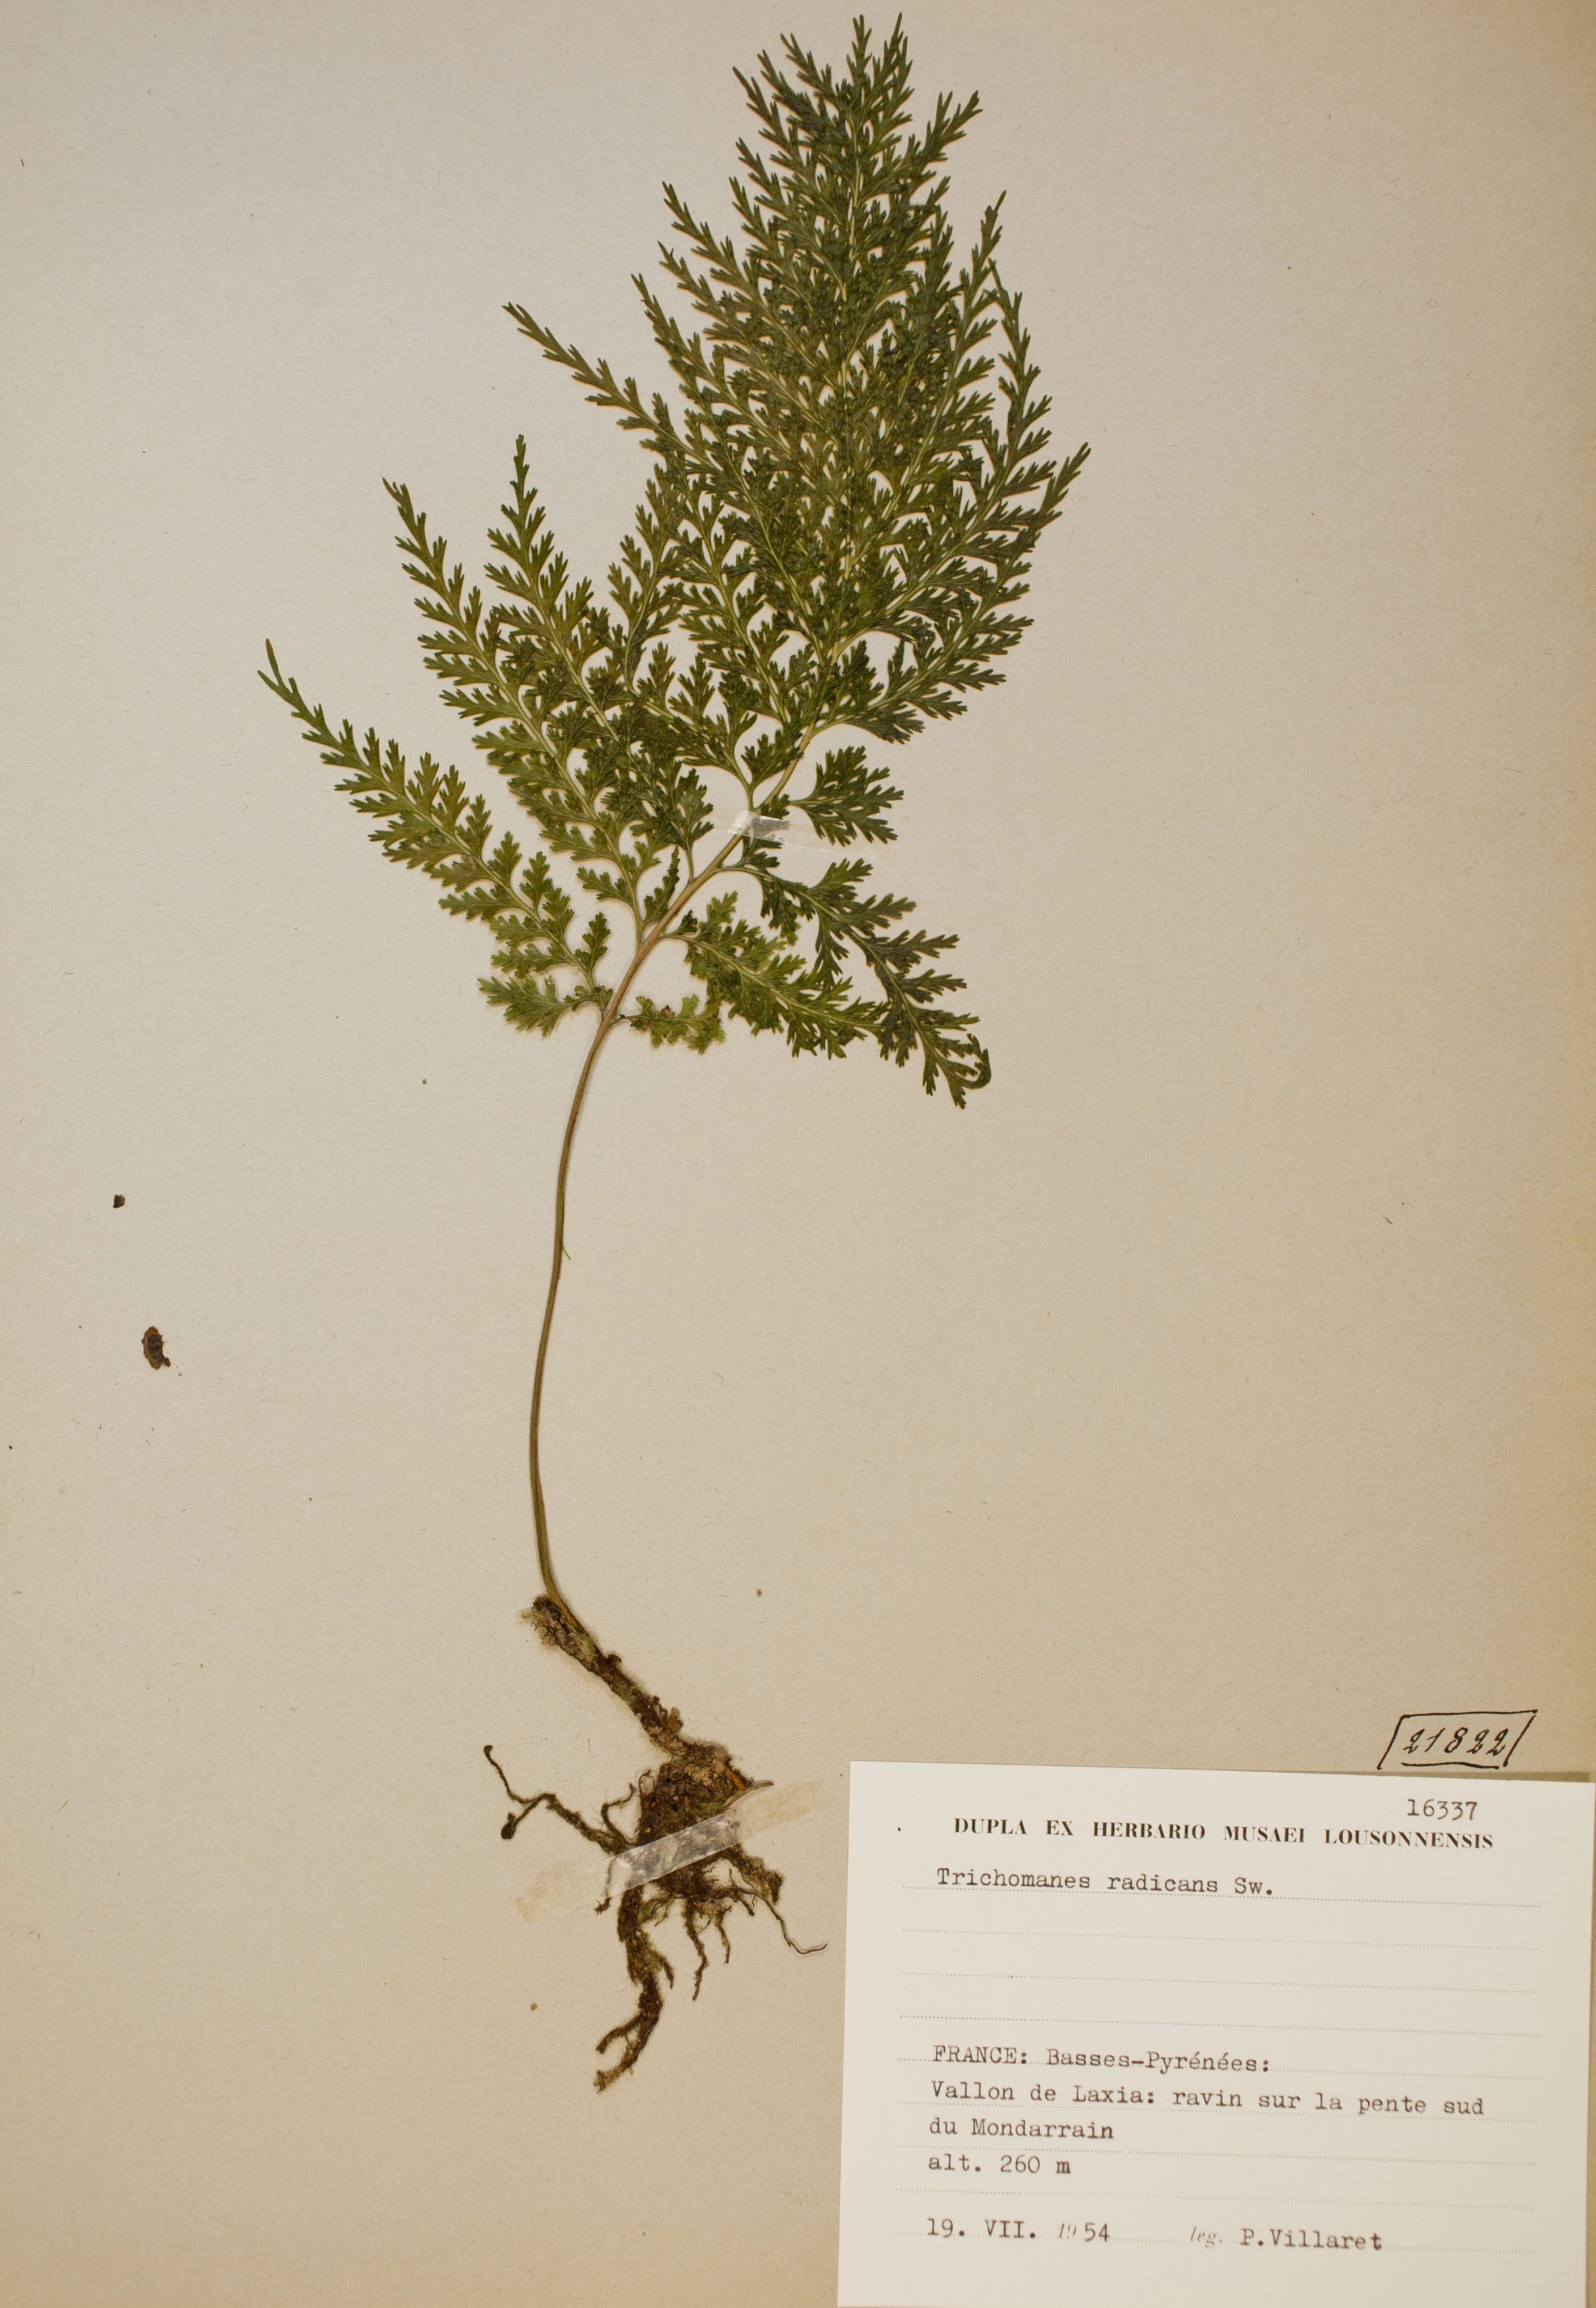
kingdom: Plantae
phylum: Tracheophyta
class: Polypodiopsida
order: Hymenophyllales
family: Hymenophyllaceae
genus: Vandenboschia
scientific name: Vandenboschia speciosa
